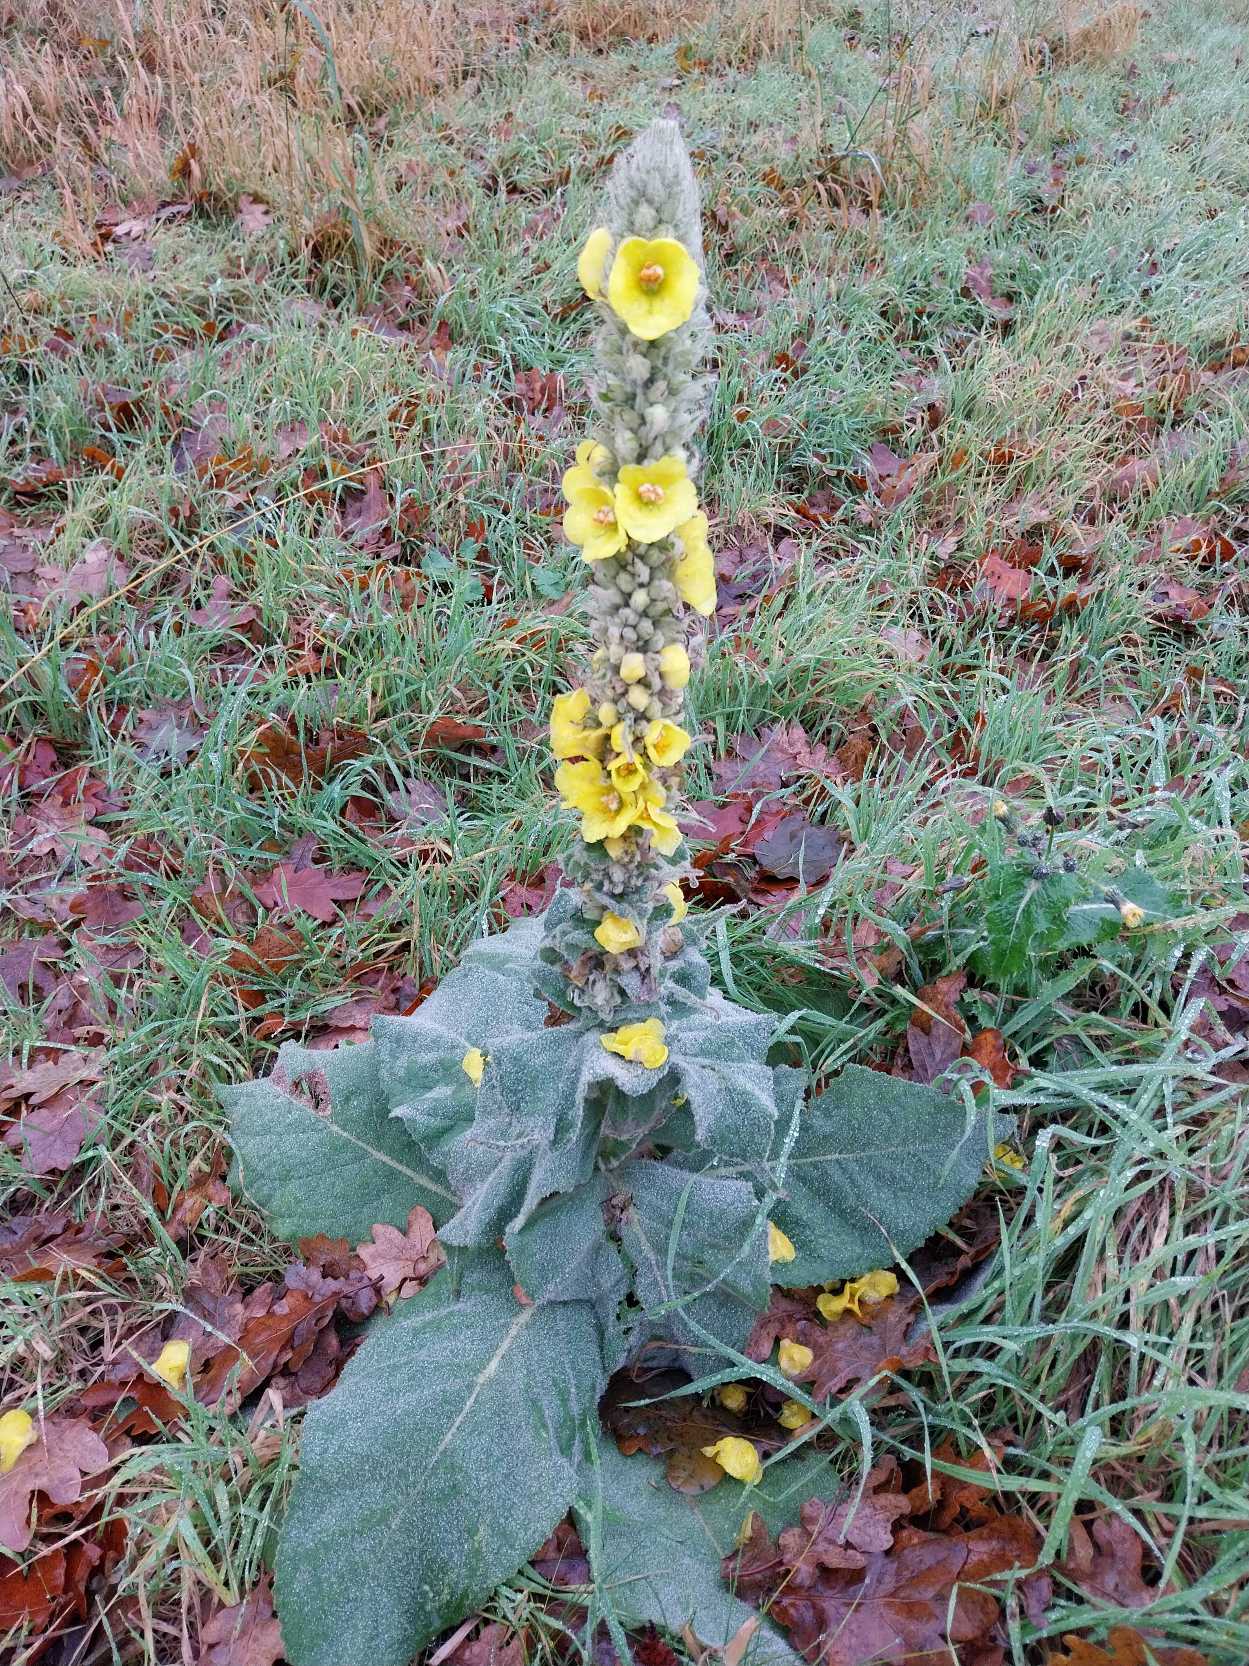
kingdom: Plantae
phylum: Tracheophyta
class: Magnoliopsida
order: Lamiales
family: Scrophulariaceae
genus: Verbascum
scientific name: Verbascum densiflorum
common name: Uldbladet kongelys
